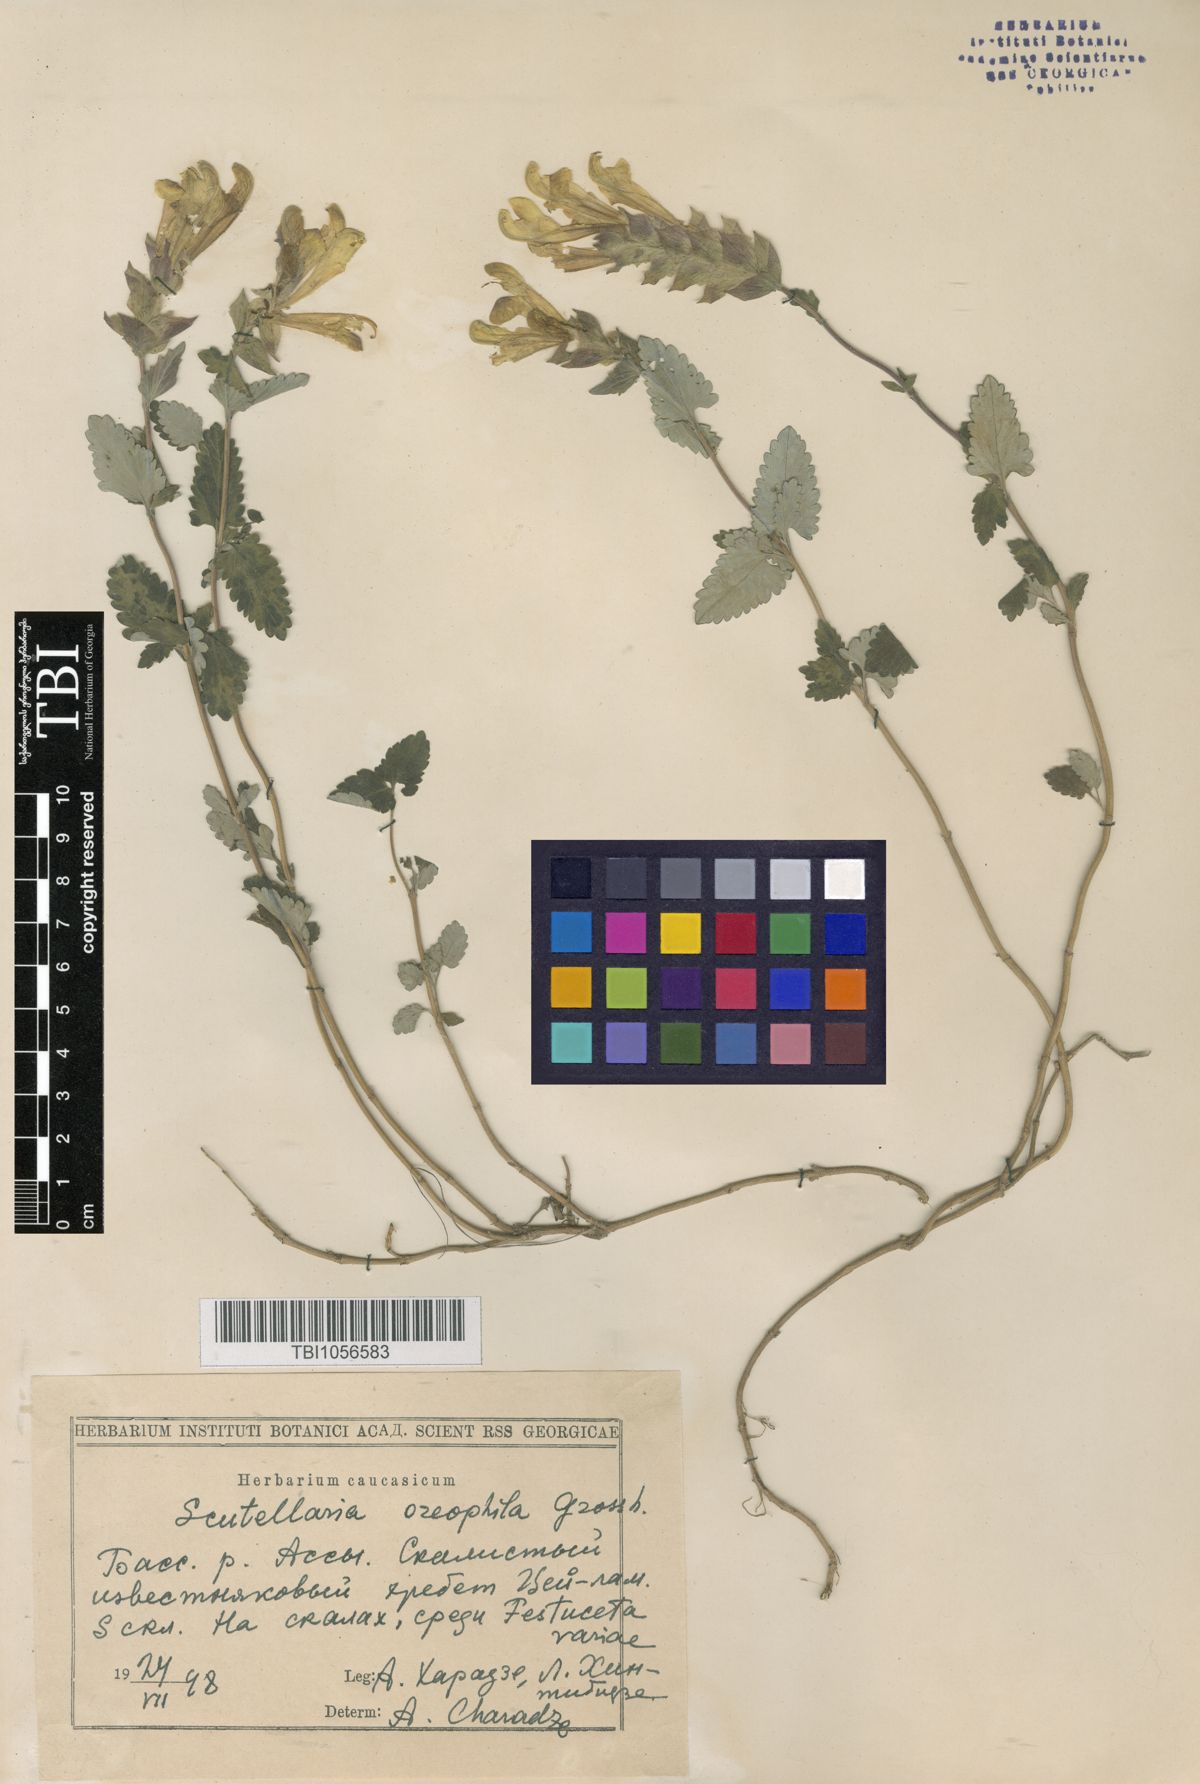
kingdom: Plantae
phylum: Tracheophyta
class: Magnoliopsida
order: Lamiales
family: Lamiaceae
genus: Scutellaria
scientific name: Scutellaria oreophila
